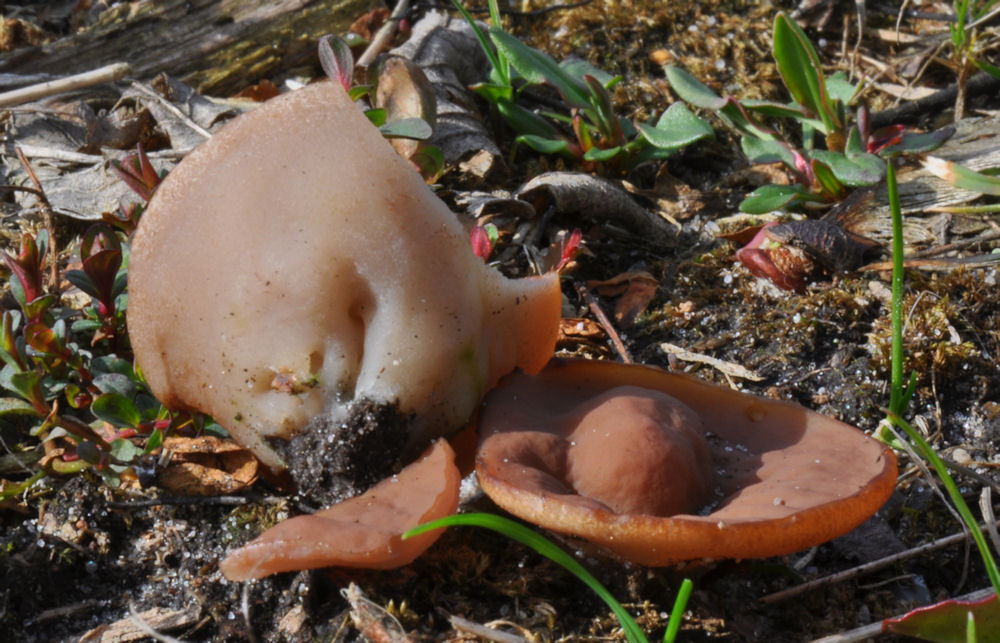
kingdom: Fungi
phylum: Ascomycota
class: Pezizomycetes
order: Pezizales
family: Discinaceae
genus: Discina
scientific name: Discina ancilis
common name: udbredt stenmorkel
